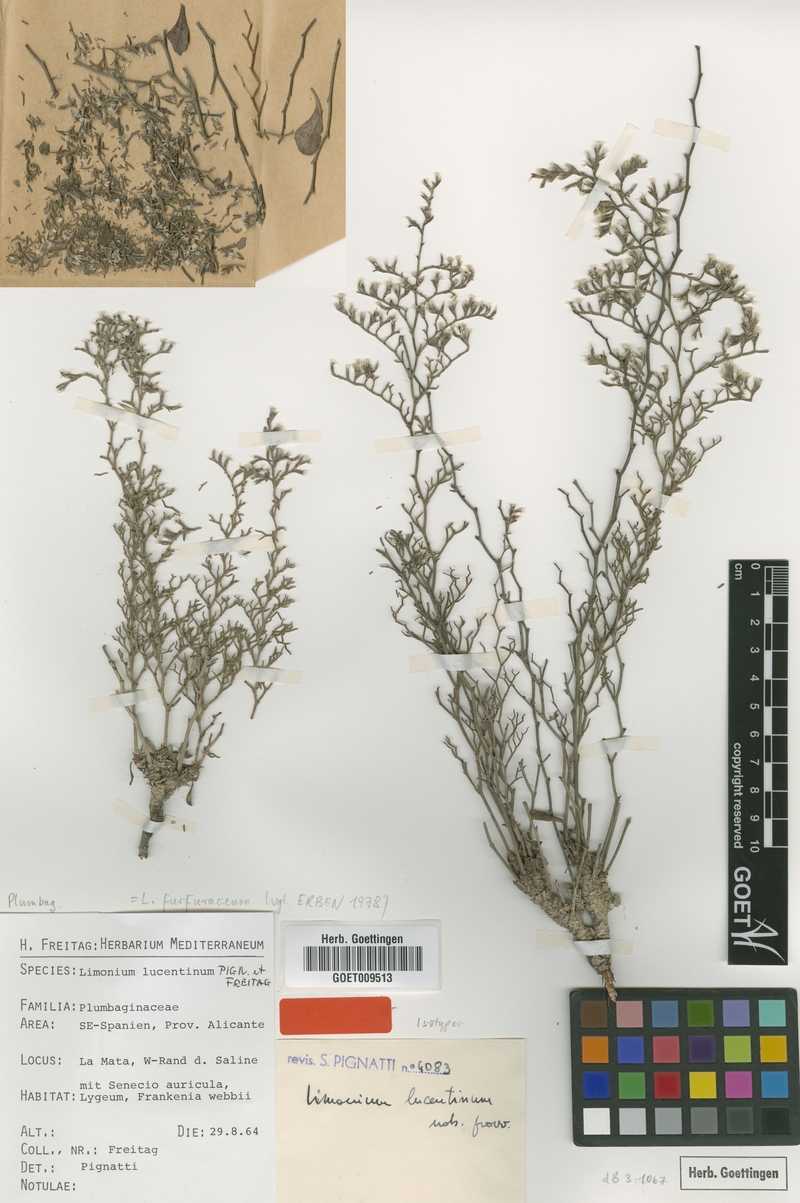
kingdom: Plantae
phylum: Tracheophyta
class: Magnoliopsida
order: Caryophyllales
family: Plumbaginaceae
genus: Limonium
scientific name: Limonium furfuraceum
